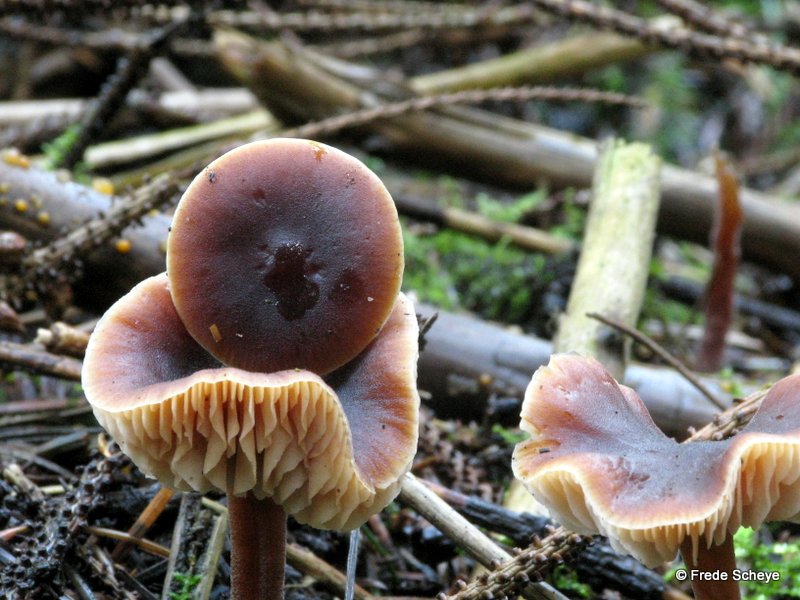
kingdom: Fungi
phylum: Basidiomycota
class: Agaricomycetes
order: Agaricales
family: Macrocystidiaceae
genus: Macrocystidia
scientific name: Macrocystidia cucumis
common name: agurkehat
